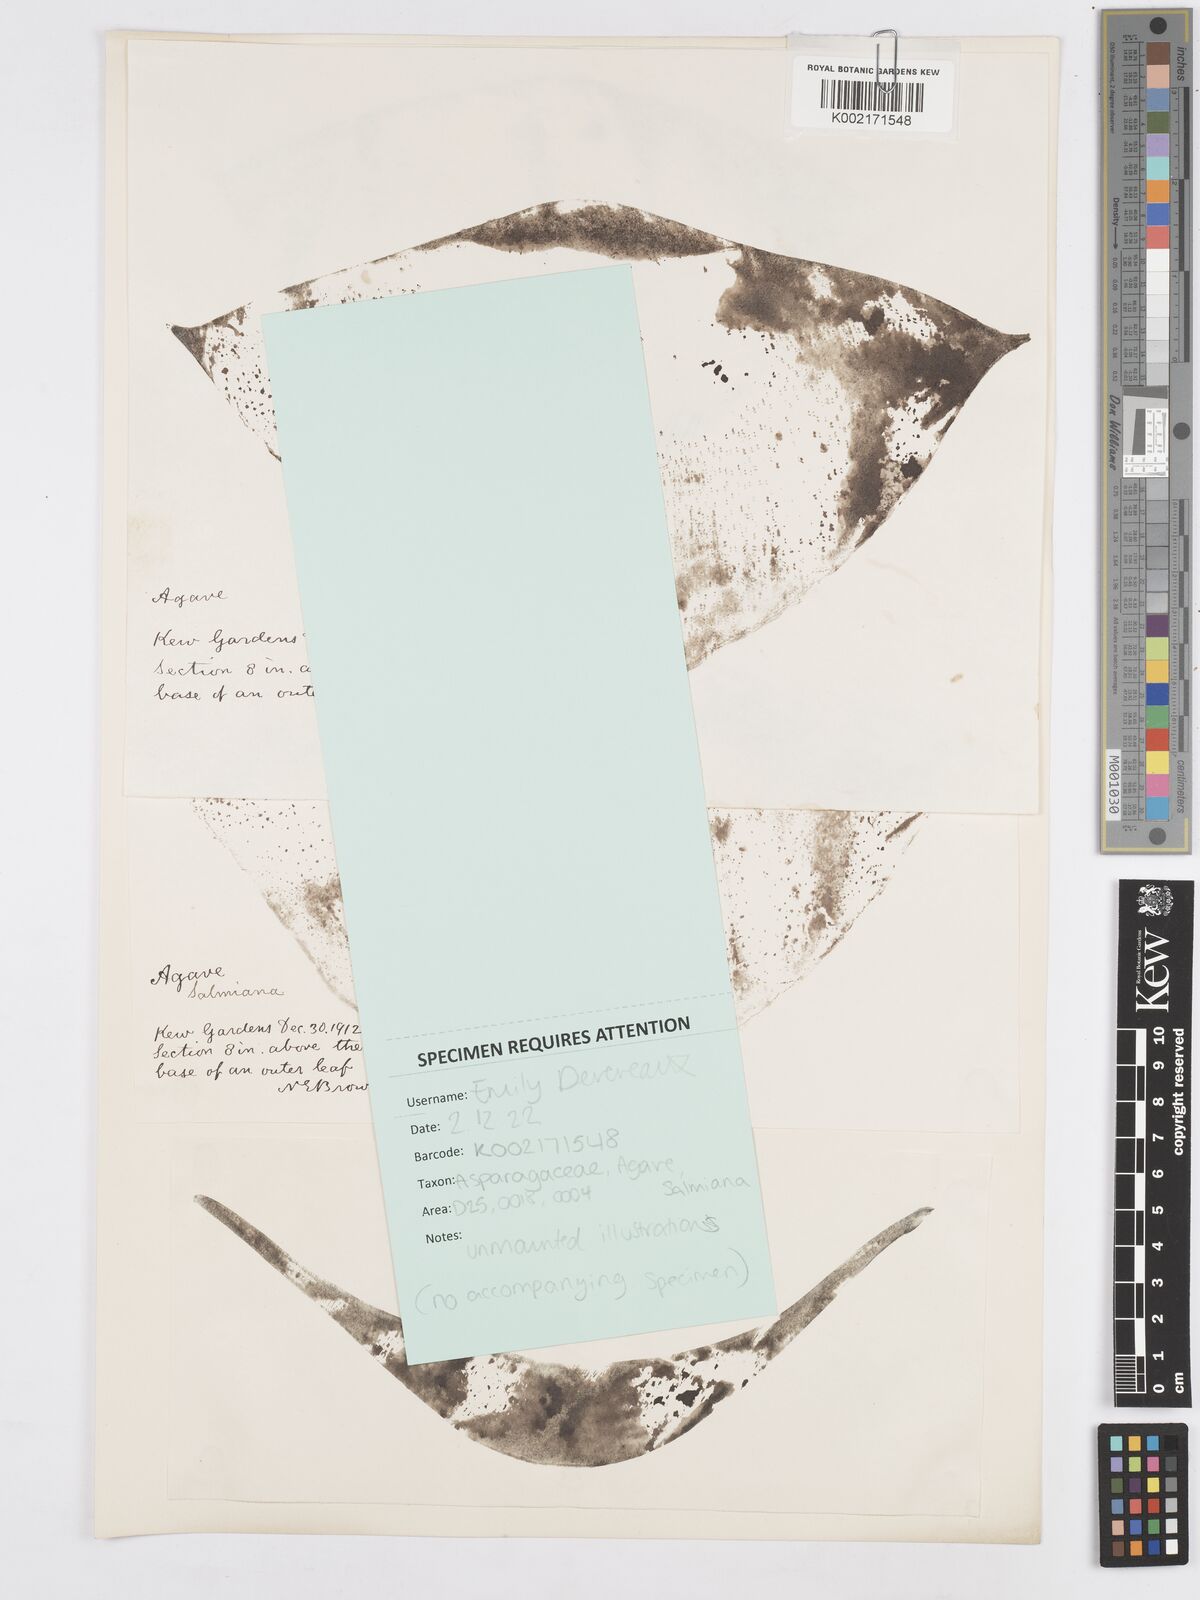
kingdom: Plantae
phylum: Tracheophyta
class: Liliopsida
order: Asparagales
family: Asparagaceae
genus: Agave
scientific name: Agave salmiana
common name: Pulque agave
